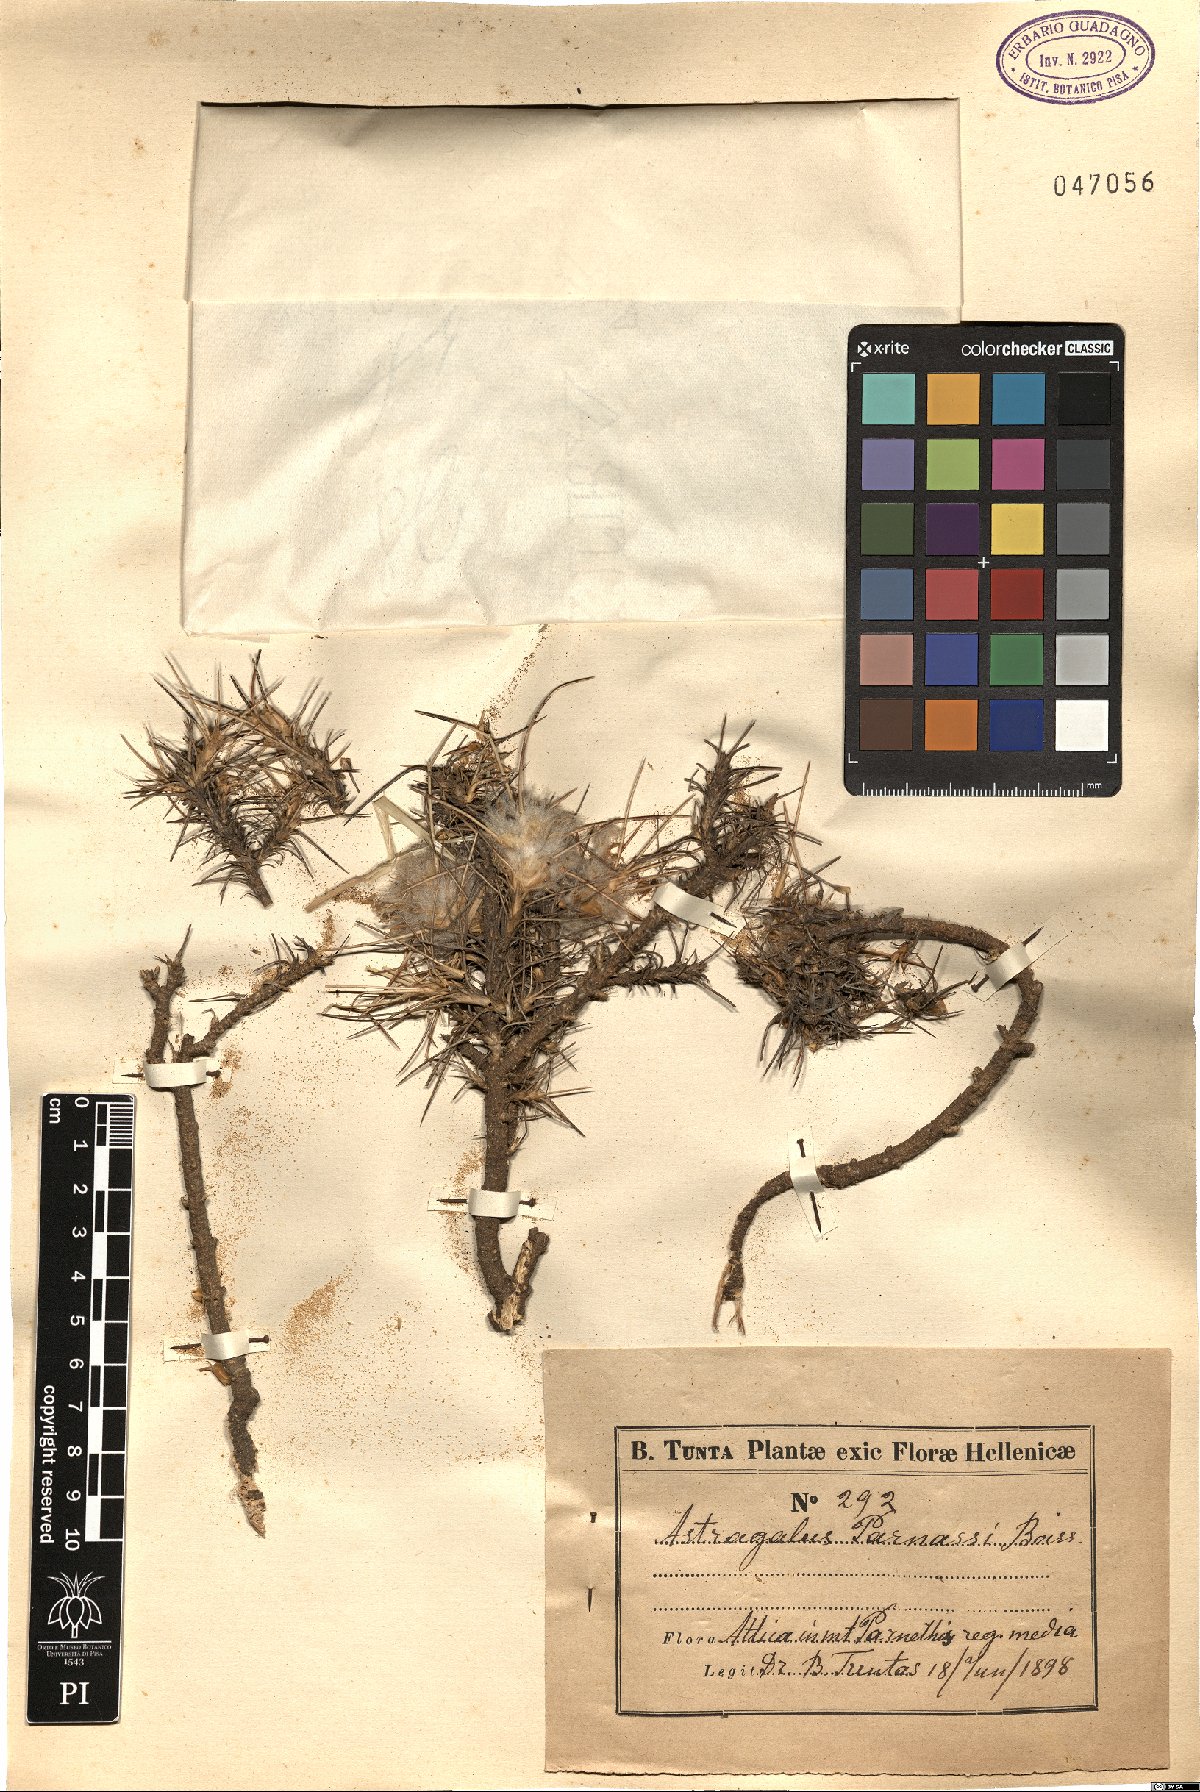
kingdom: Plantae
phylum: Tracheophyta
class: Magnoliopsida
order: Fabales
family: Fabaceae
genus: Astragalus
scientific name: Astragalus parnassi
